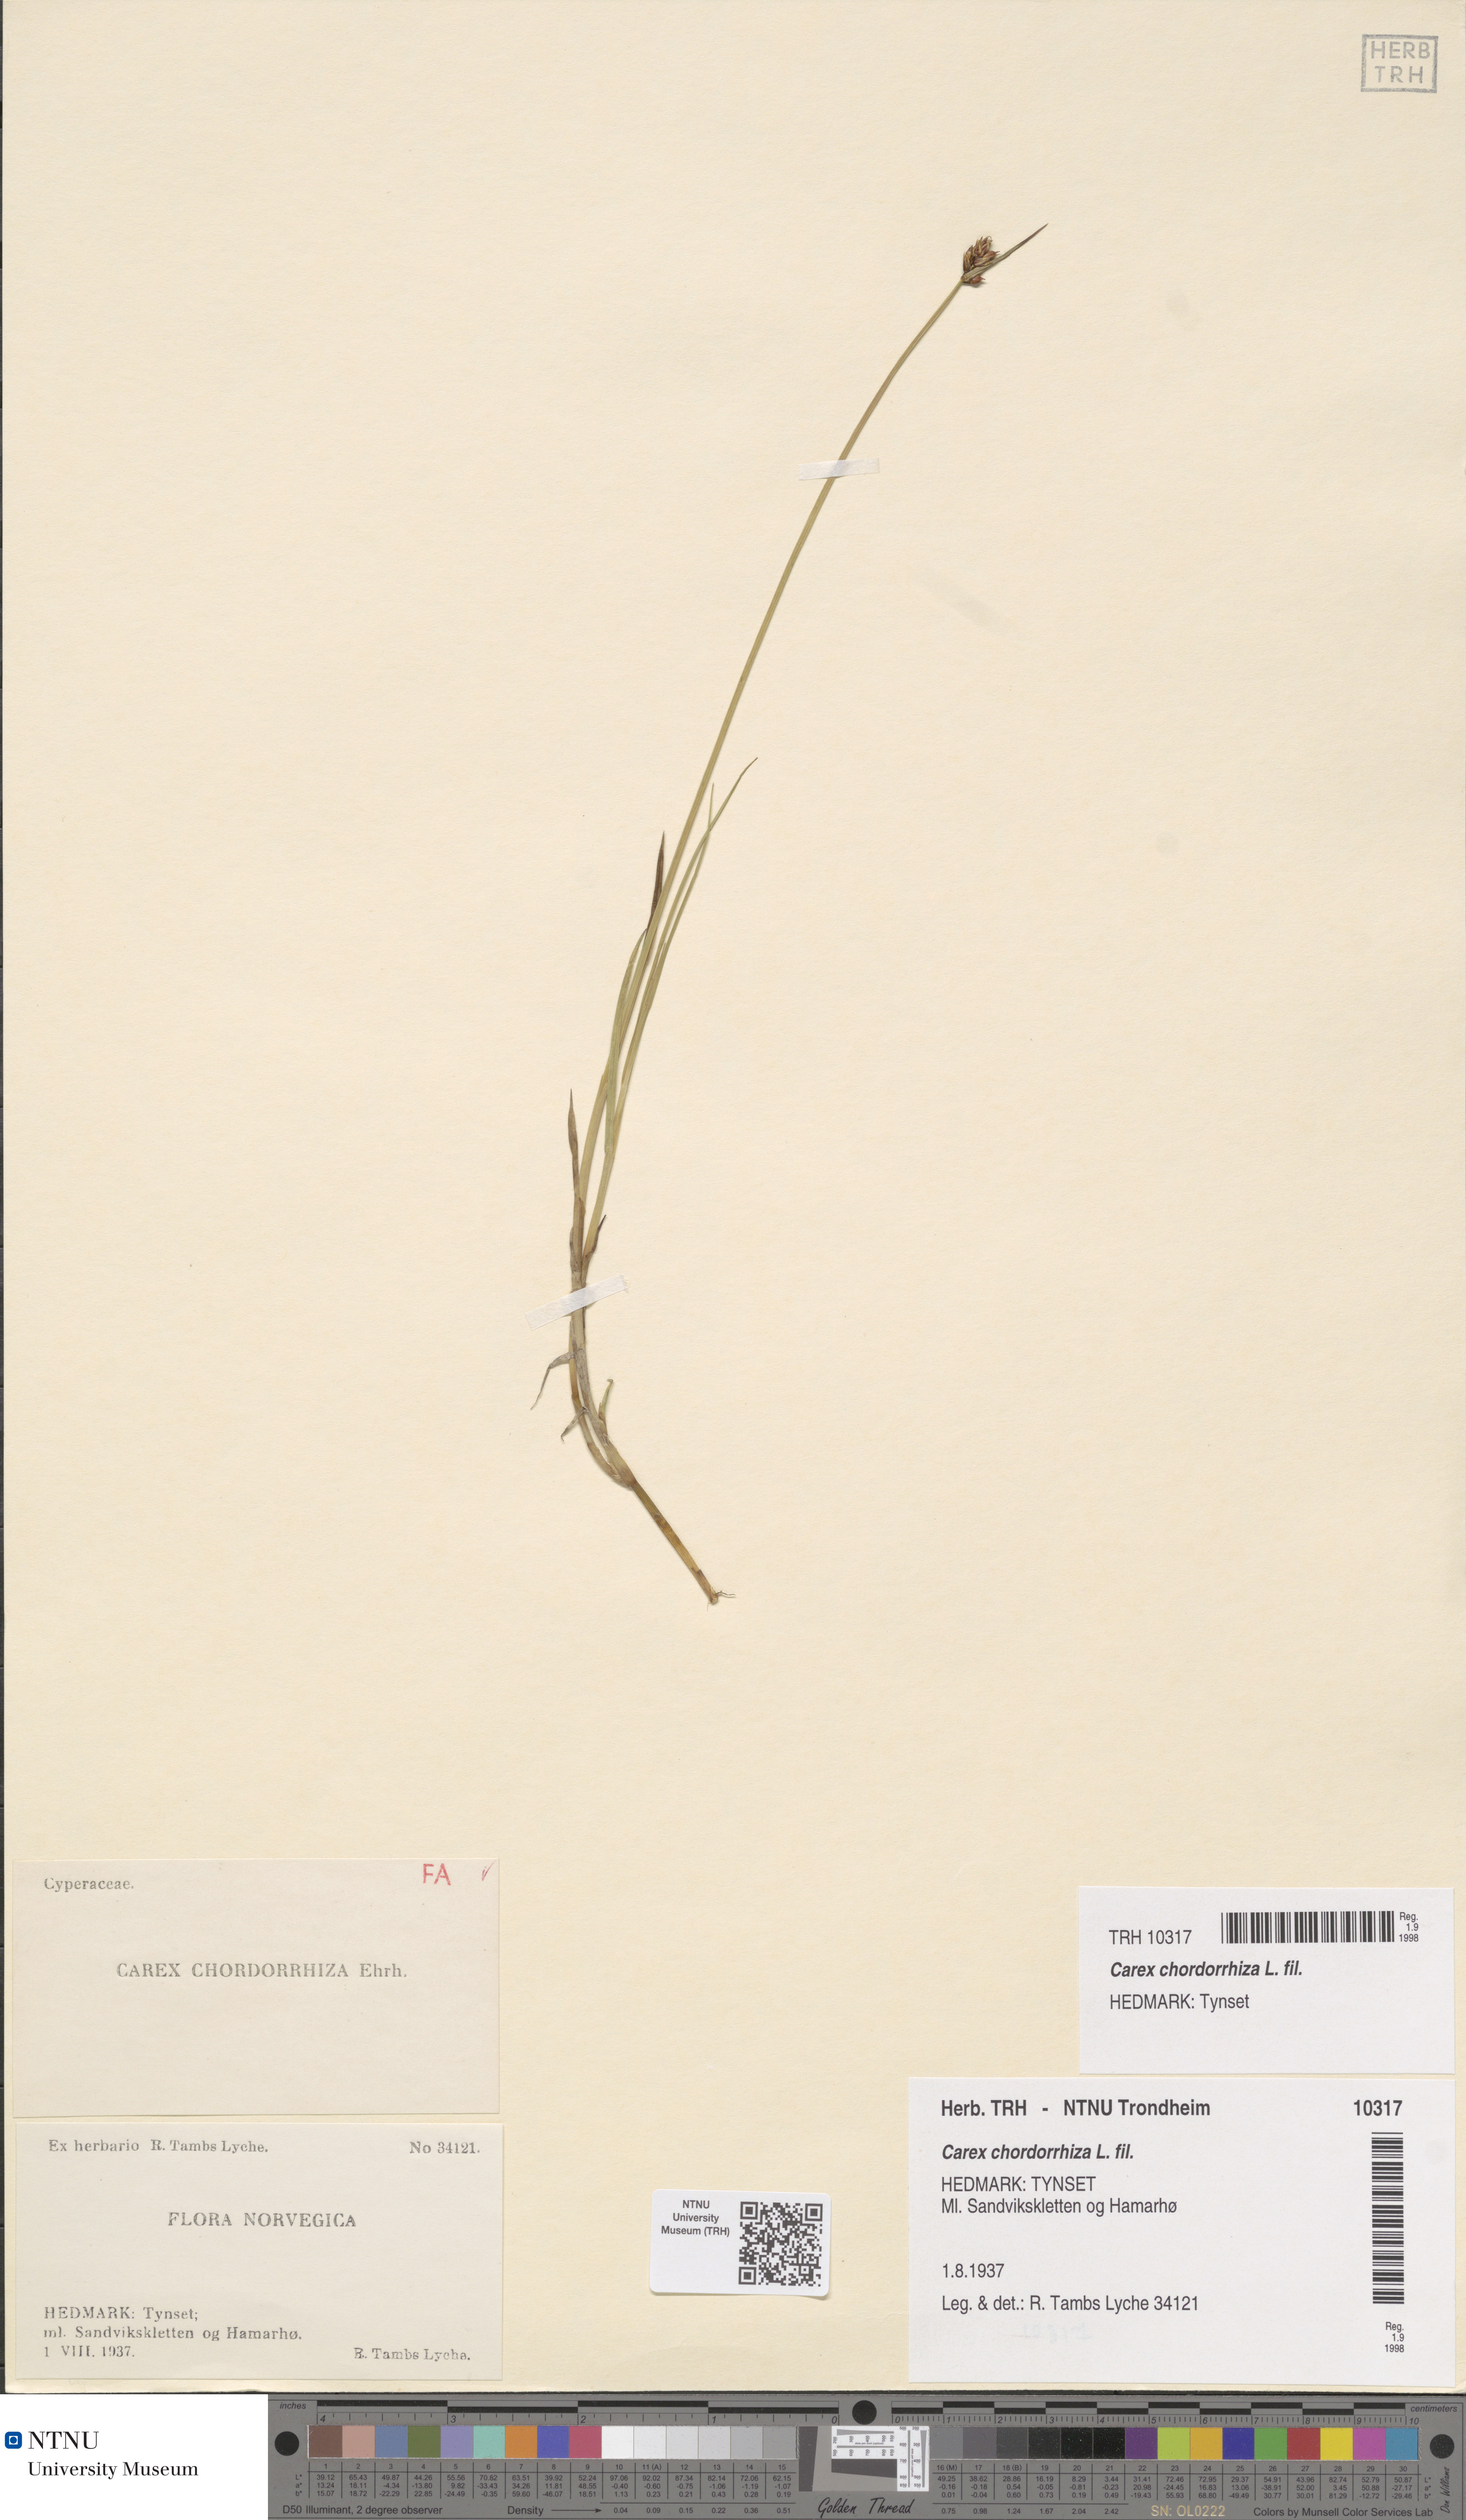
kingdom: Plantae
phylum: Tracheophyta
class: Liliopsida
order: Poales
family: Cyperaceae
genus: Carex
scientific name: Carex chordorrhiza
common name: String sedge
